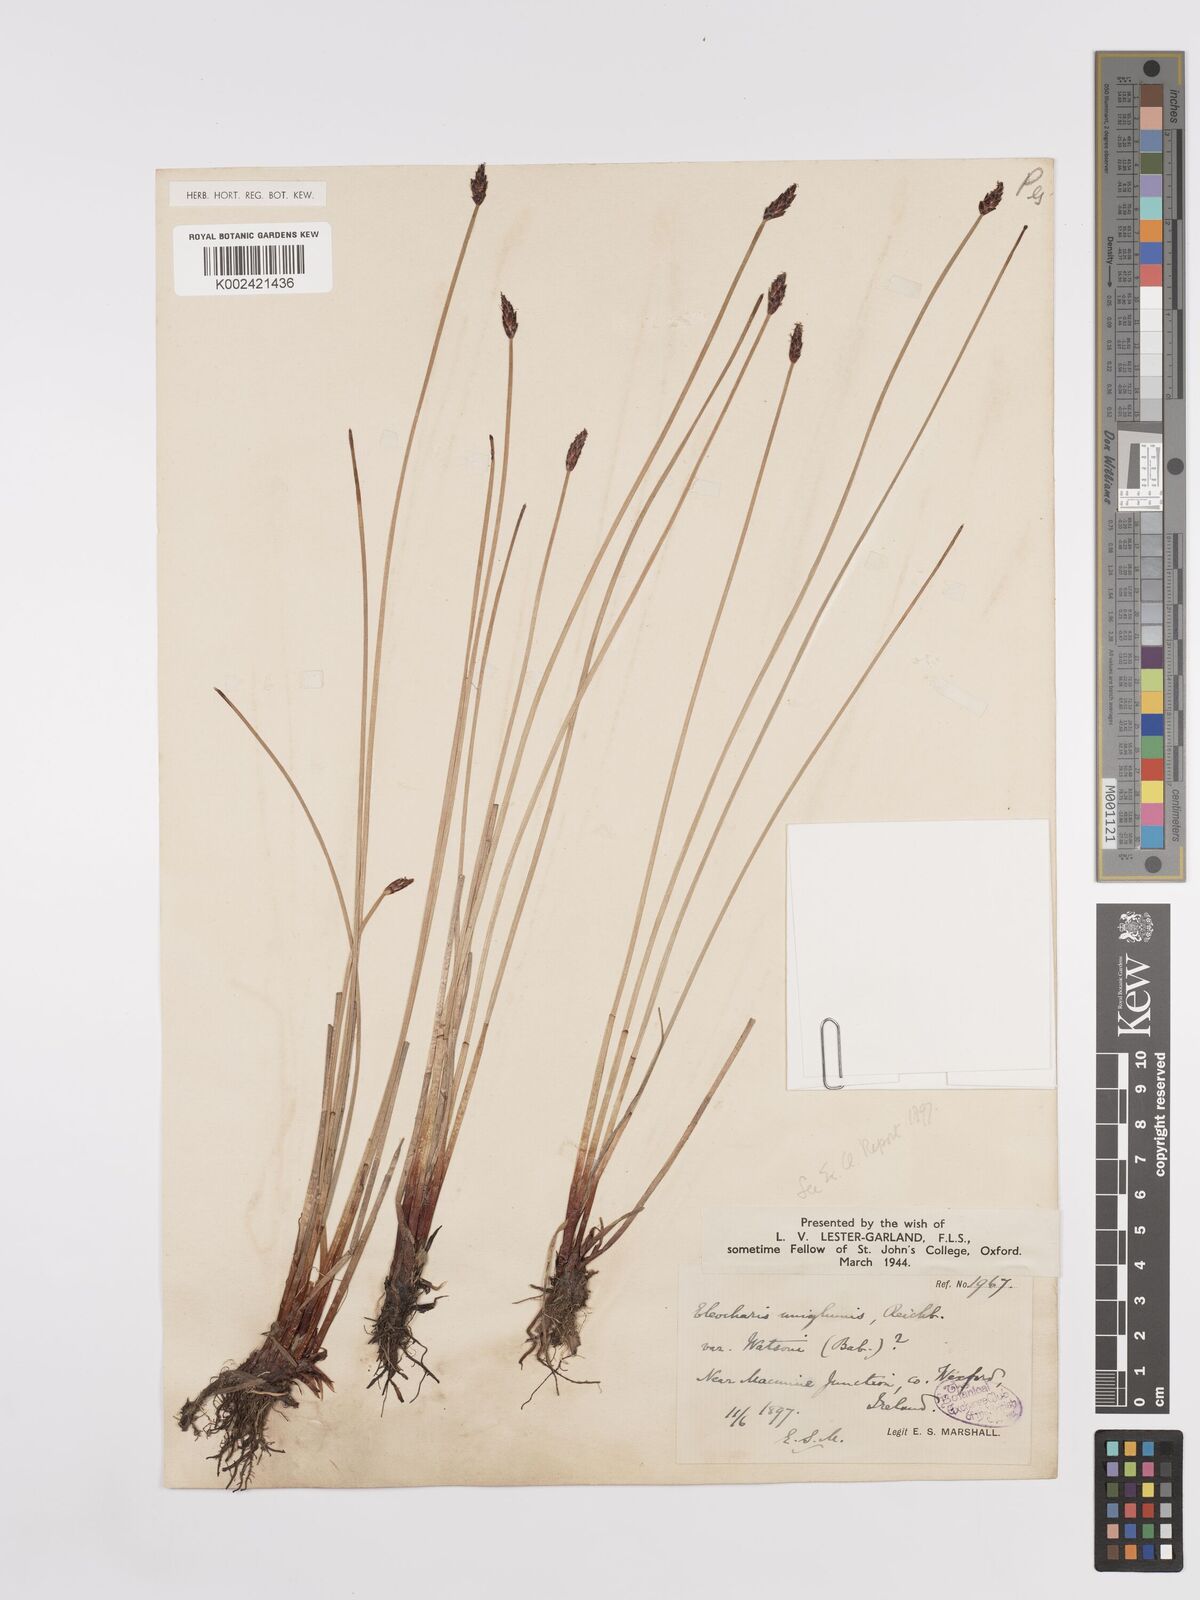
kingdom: Plantae
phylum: Tracheophyta
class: Liliopsida
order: Poales
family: Cyperaceae
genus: Eleocharis
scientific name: Eleocharis uniglumis
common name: Slender spike-rush
